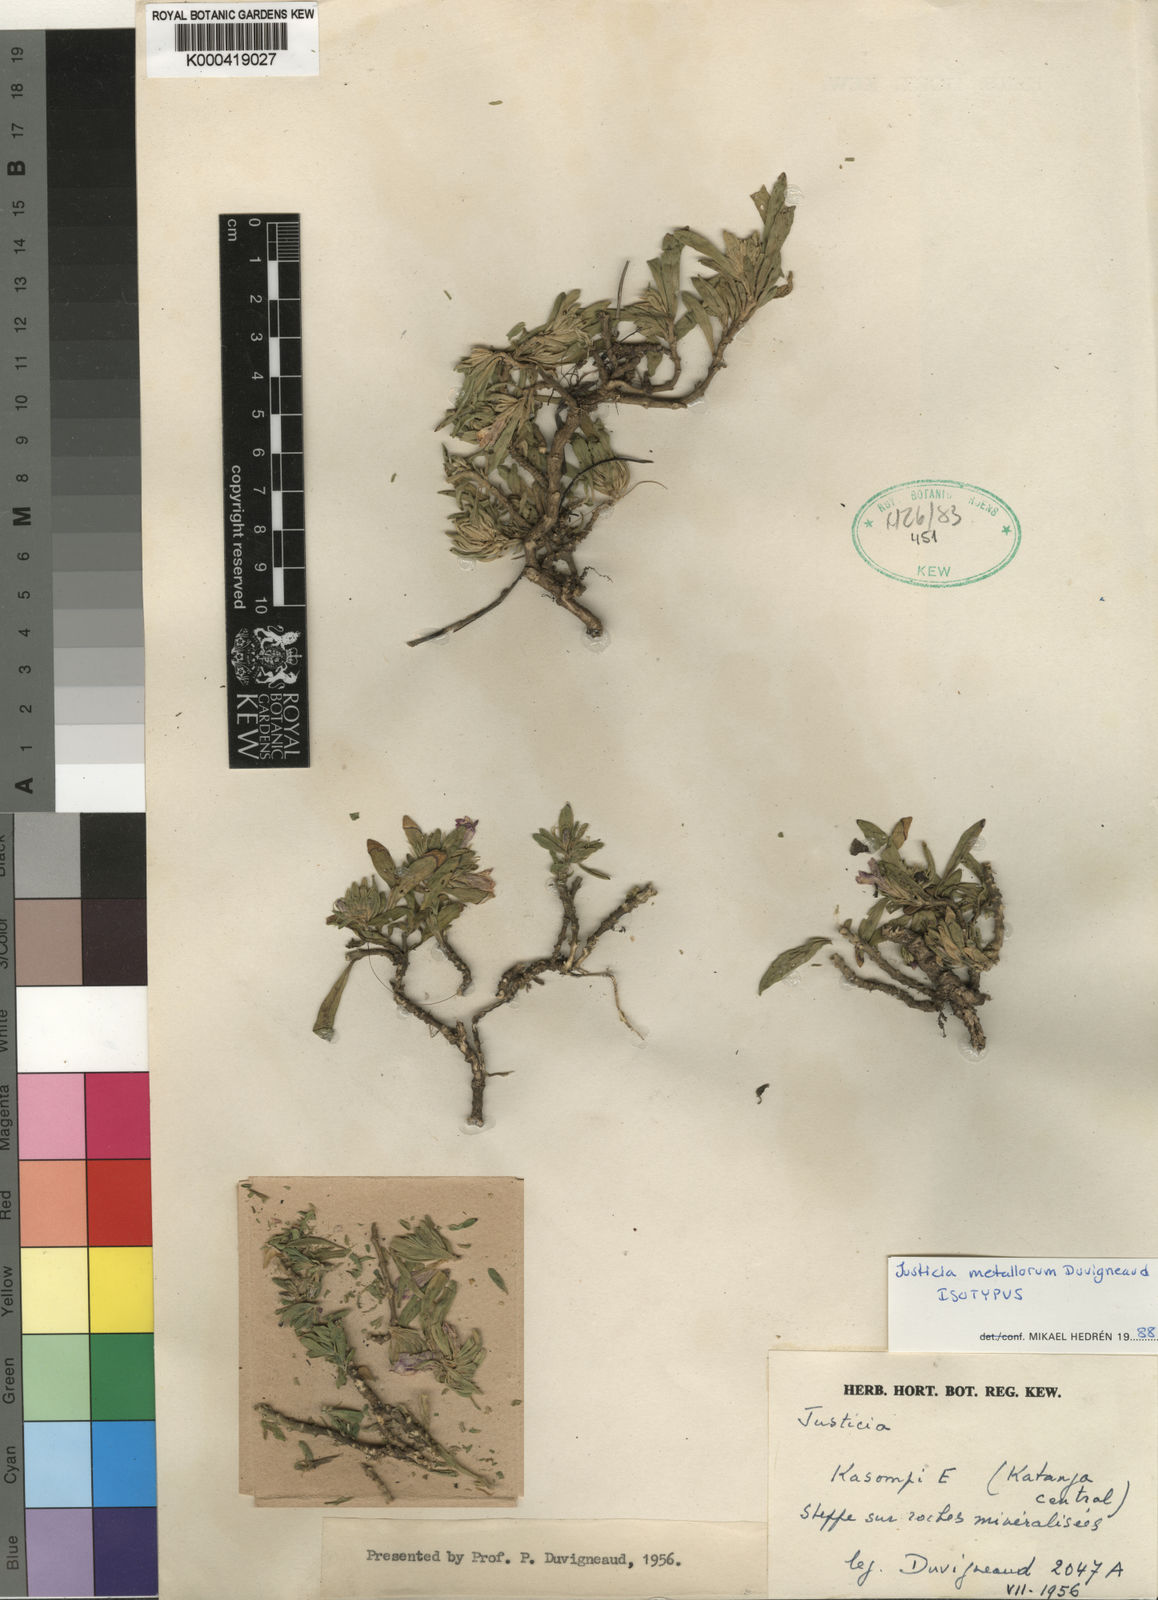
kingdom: Plantae
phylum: Tracheophyta
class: Magnoliopsida
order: Lamiales
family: Acanthaceae
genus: Justicia
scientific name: Justicia metallorum
